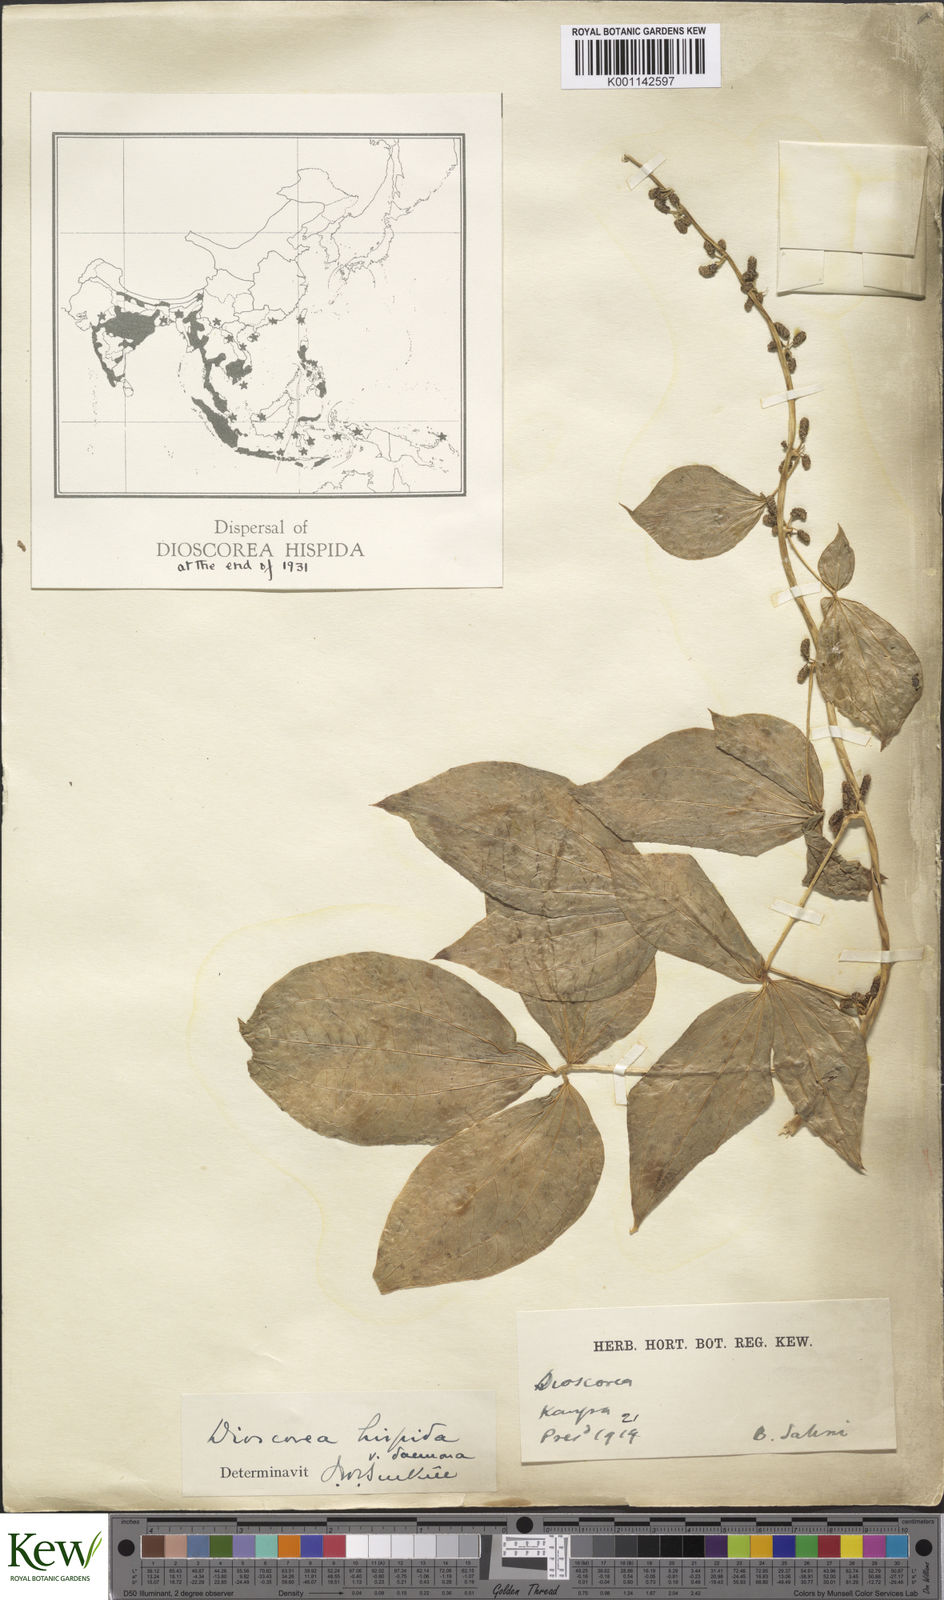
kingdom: Plantae
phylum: Tracheophyta
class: Liliopsida
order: Dioscoreales
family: Dioscoreaceae
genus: Dioscorea
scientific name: Dioscorea pentaphylla
